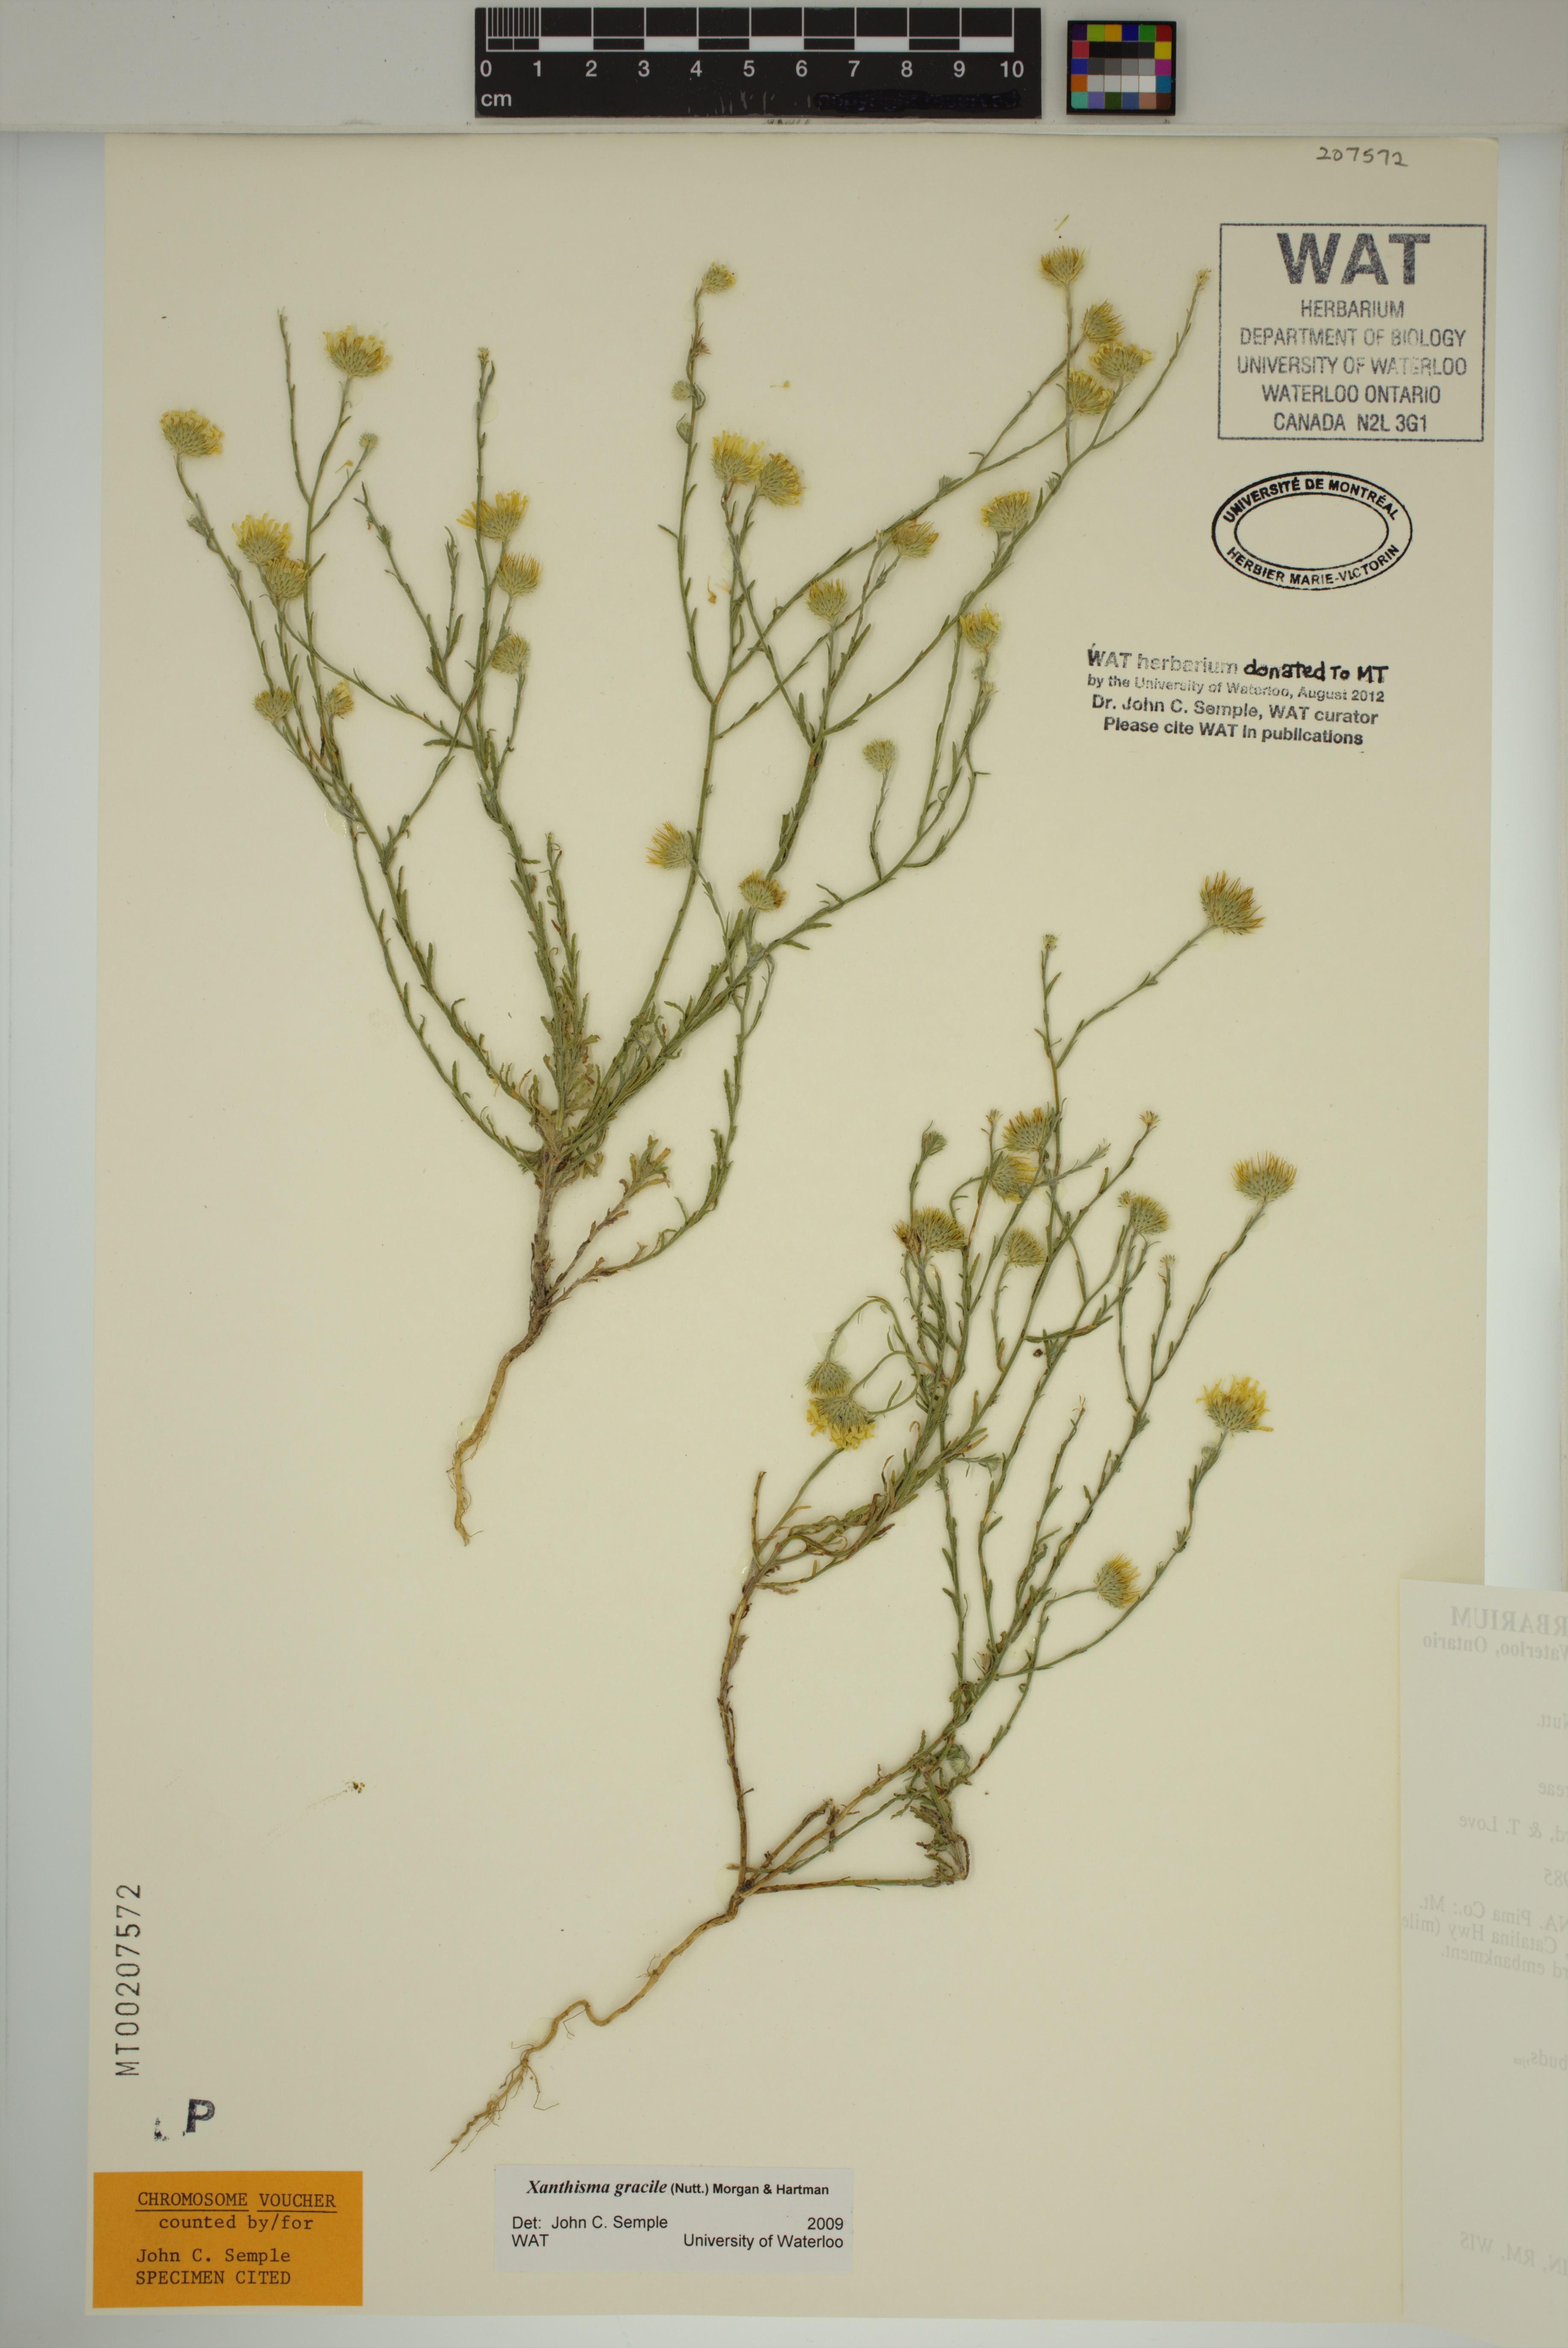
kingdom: Plantae
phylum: Tracheophyta
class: Magnoliopsida
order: Asterales
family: Asteraceae
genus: Xanthisma
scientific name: Xanthisma gracile
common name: Slender goldenweed
